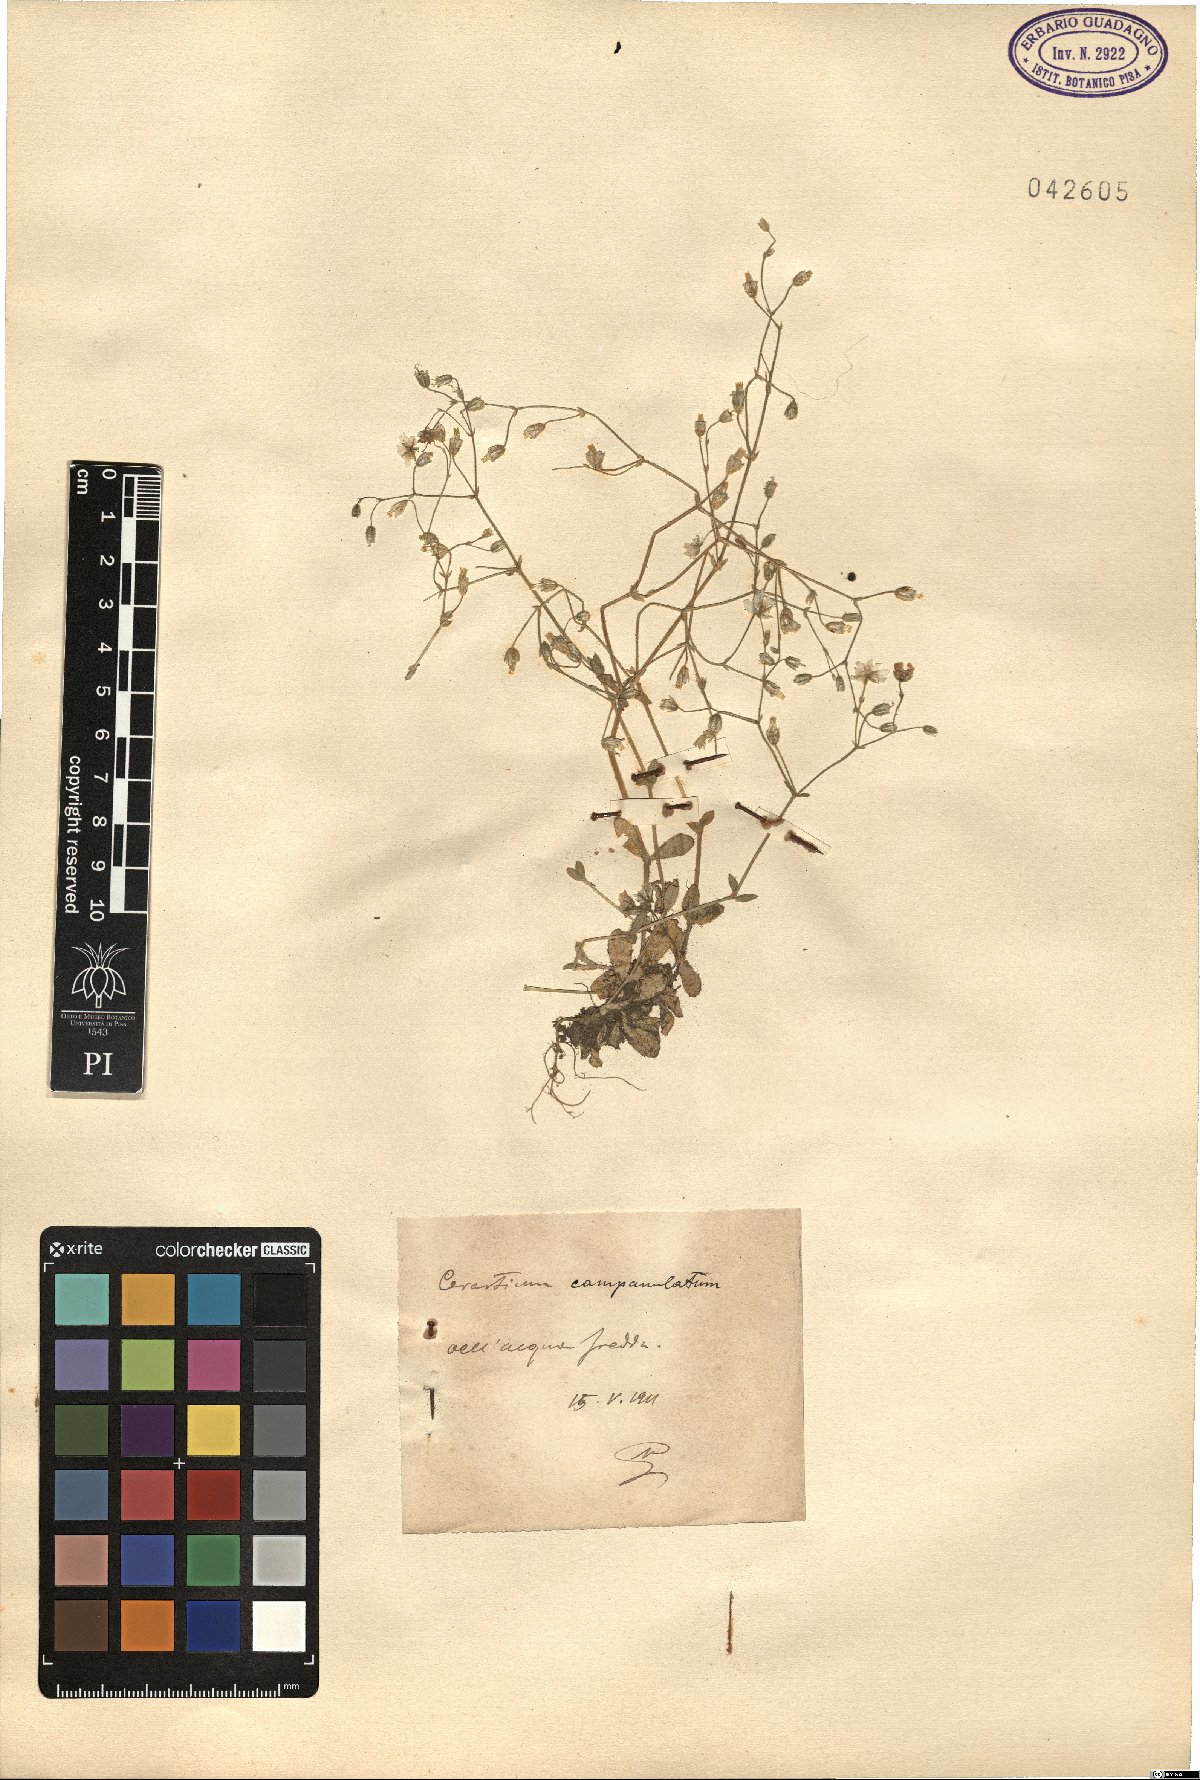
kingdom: Plantae
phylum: Tracheophyta
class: Magnoliopsida
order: Caryophyllales
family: Caryophyllaceae
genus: Cerastium
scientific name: Cerastium ligusticum
